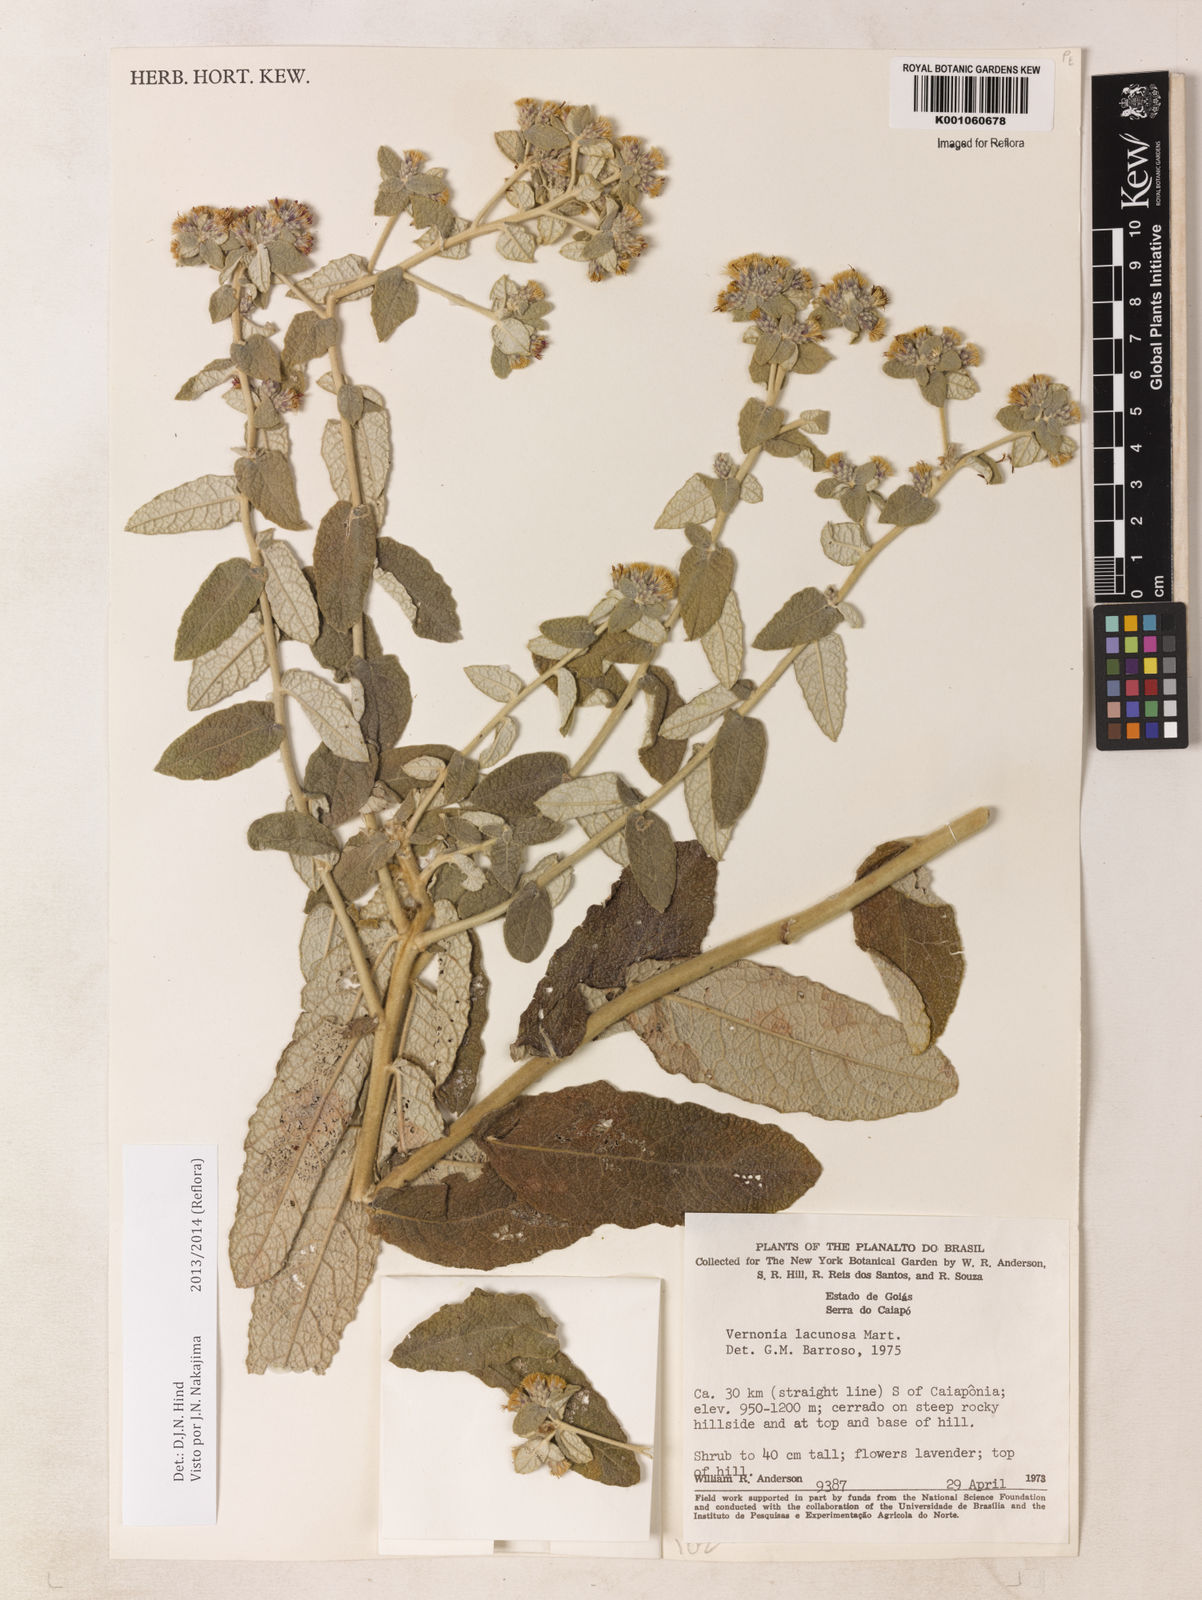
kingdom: Plantae
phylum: Tracheophyta
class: Magnoliopsida
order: Asterales
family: Asteraceae
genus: Lessingianthus
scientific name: Lessingianthus lacunosus
